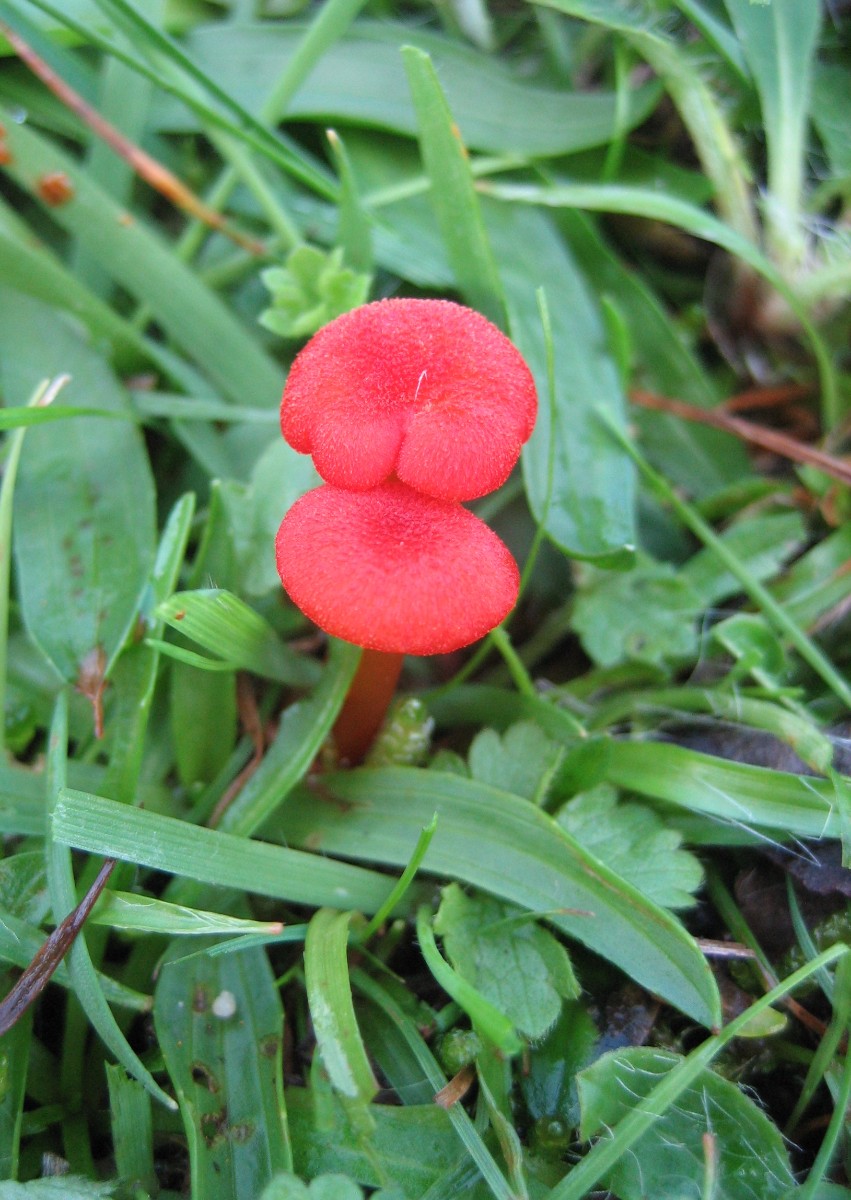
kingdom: Fungi
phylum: Basidiomycota
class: Agaricomycetes
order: Agaricales
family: Hygrophoraceae
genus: Hygrocybe
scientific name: Hygrocybe helobia
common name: hvidløgs-vokshat
